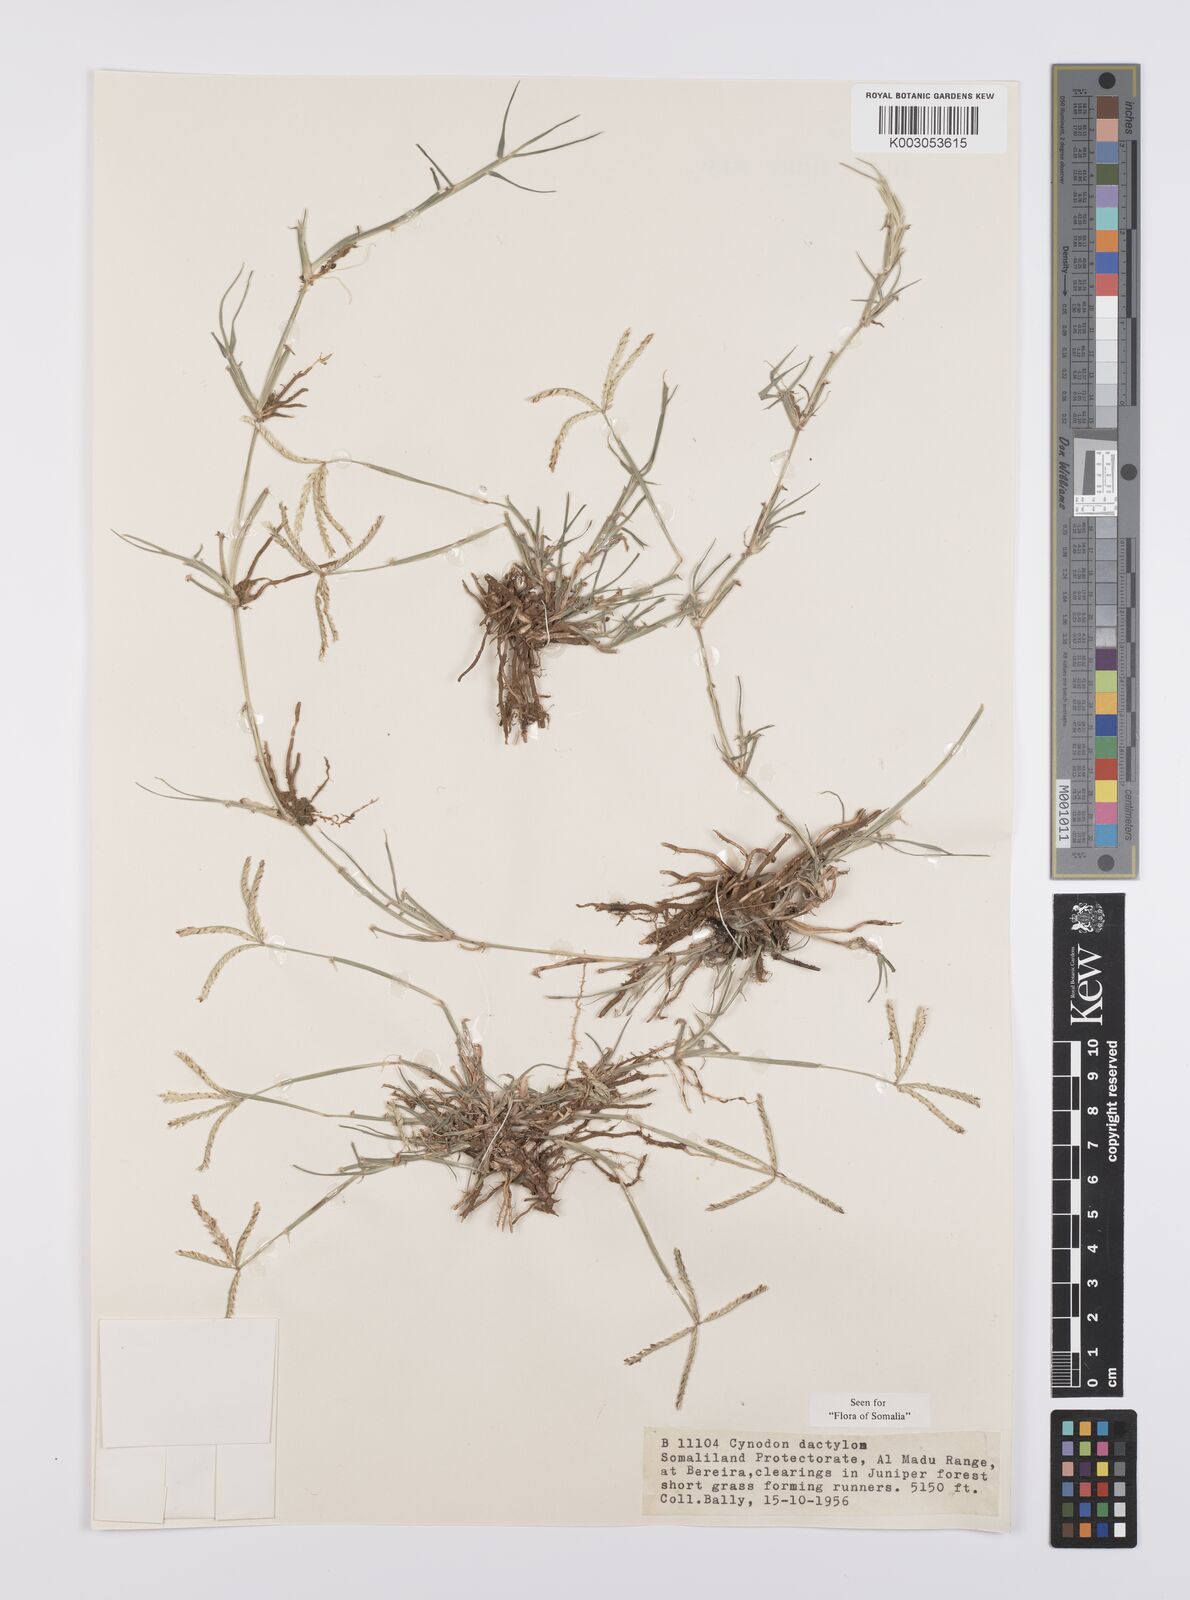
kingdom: Plantae
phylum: Tracheophyta
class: Liliopsida
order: Poales
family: Poaceae
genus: Cynodon
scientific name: Cynodon dactylon
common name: Bermuda grass
